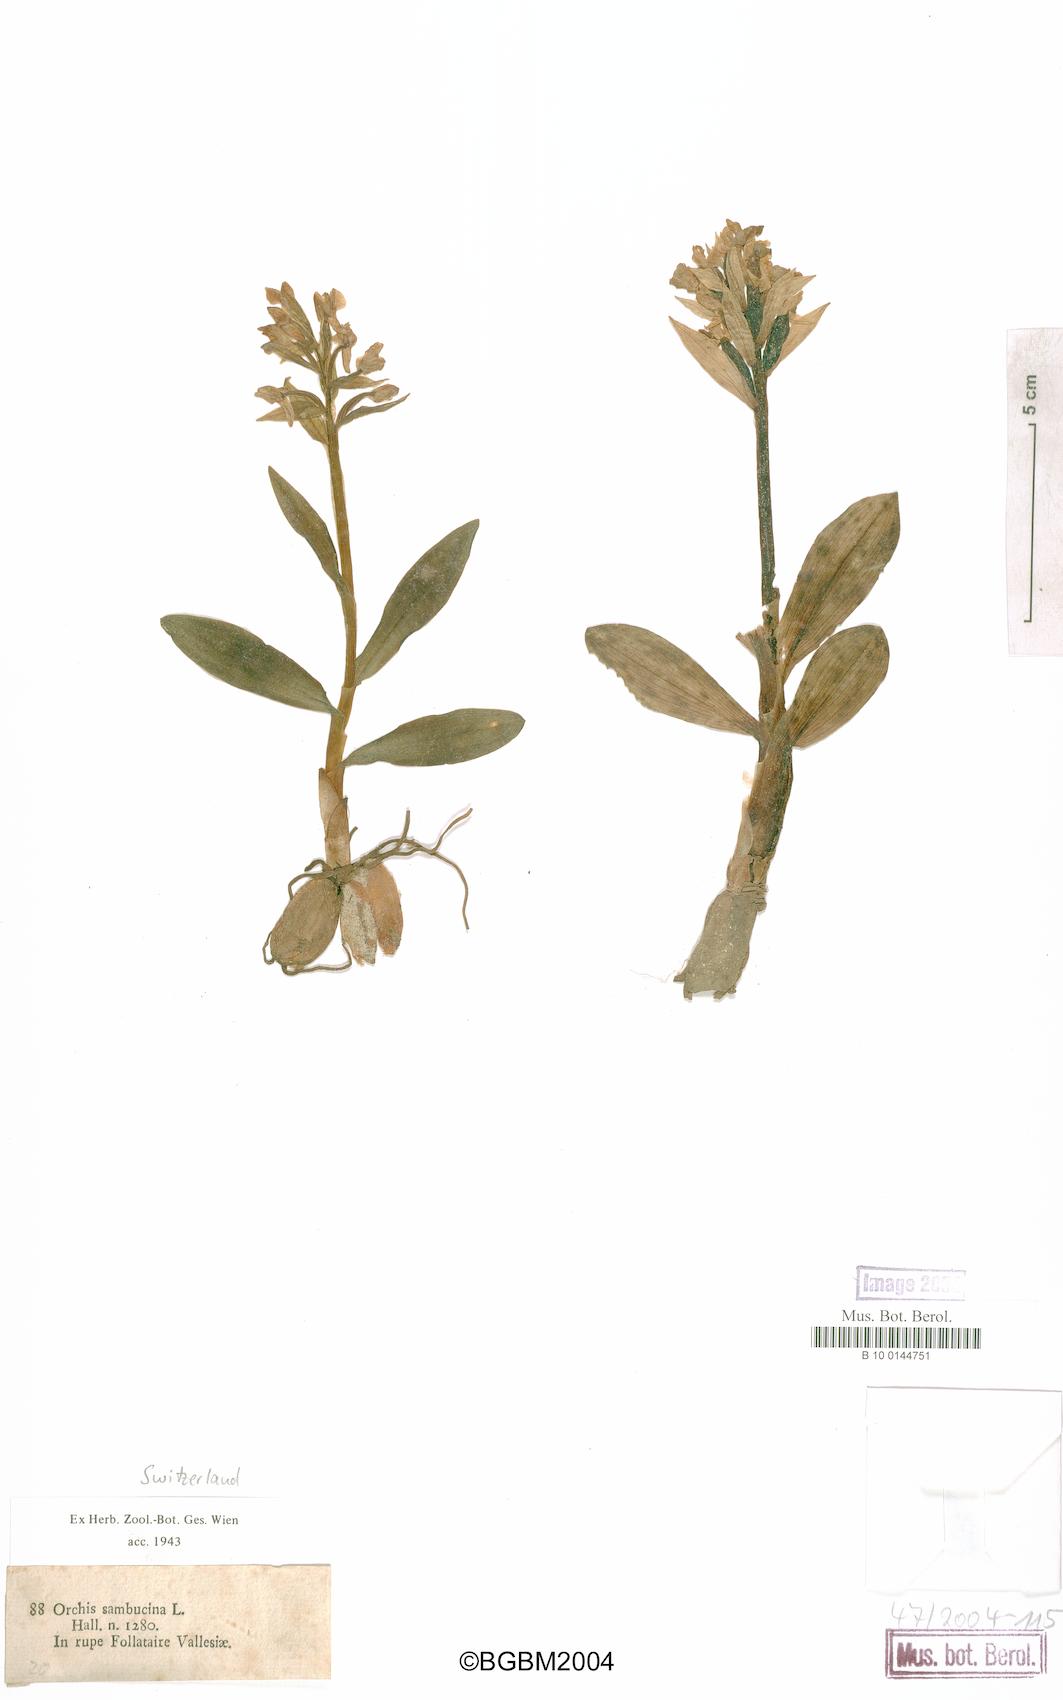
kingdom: Plantae
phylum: Tracheophyta
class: Liliopsida
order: Asparagales
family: Orchidaceae
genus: Dactylorhiza
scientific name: Dactylorhiza sambucina
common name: Elder-flowered orchid
